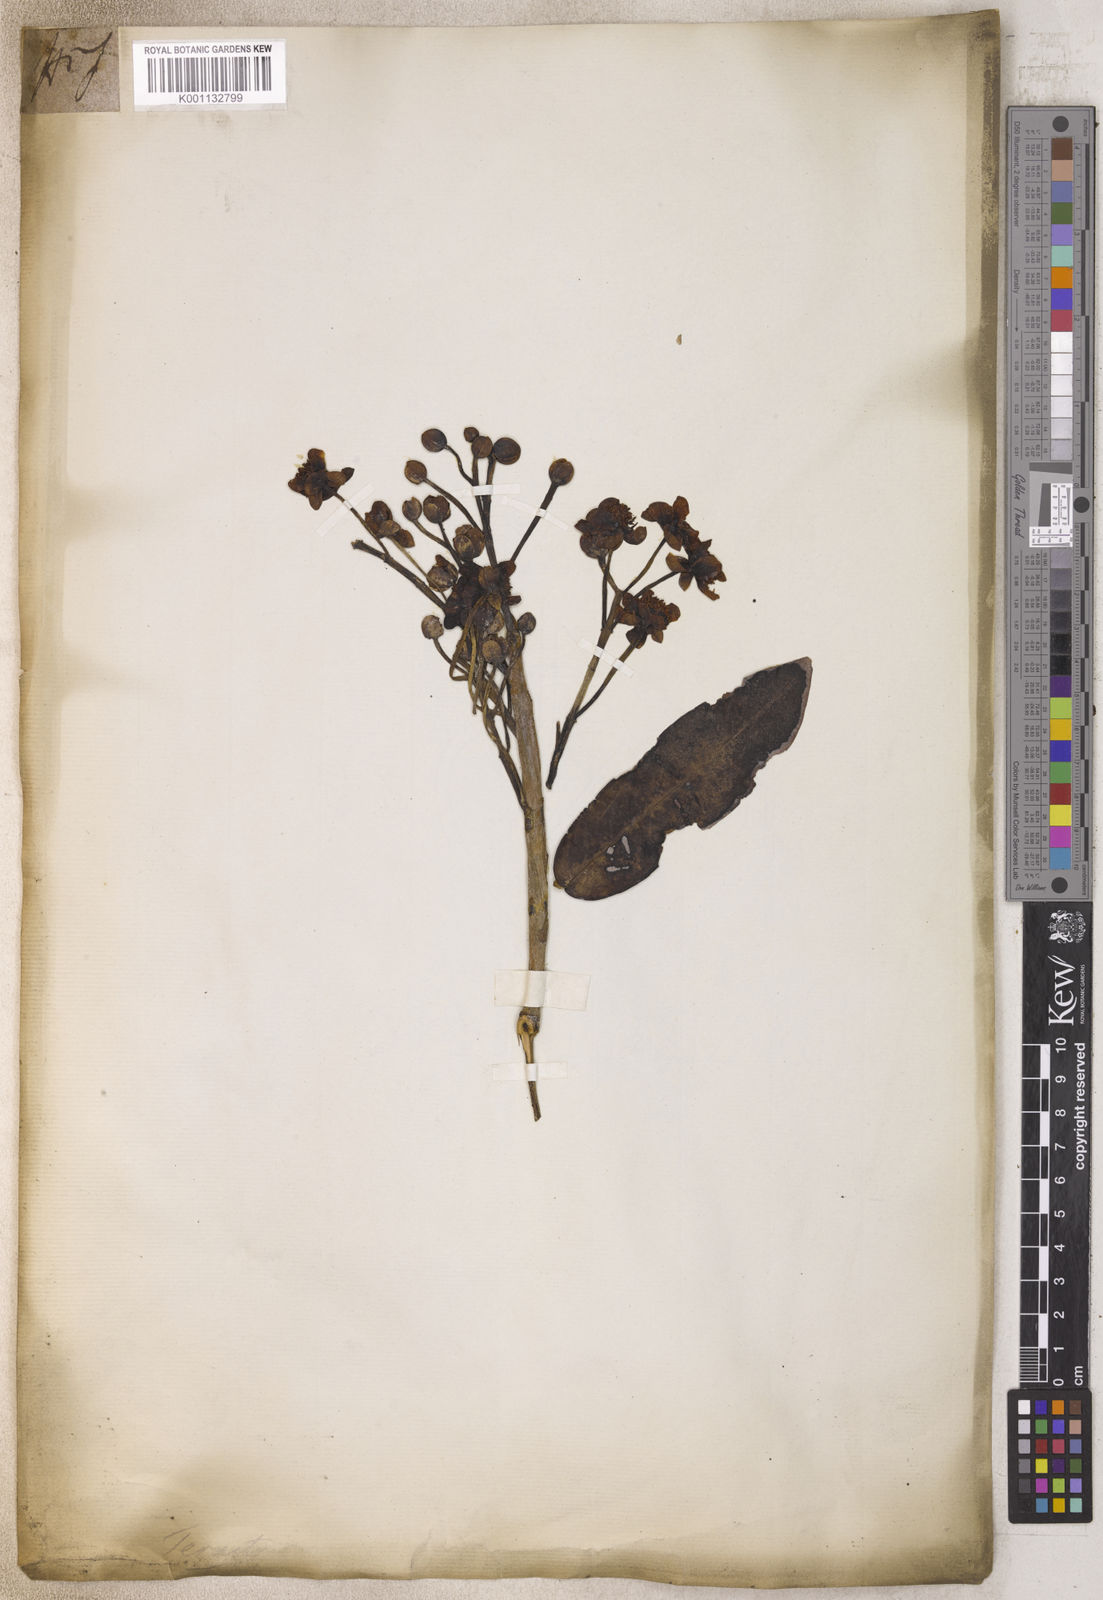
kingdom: Plantae
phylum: Tracheophyta
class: Magnoliopsida
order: Ericales
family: Pentaphylacaceae
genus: Ternstroemia
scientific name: Ternstroemia
